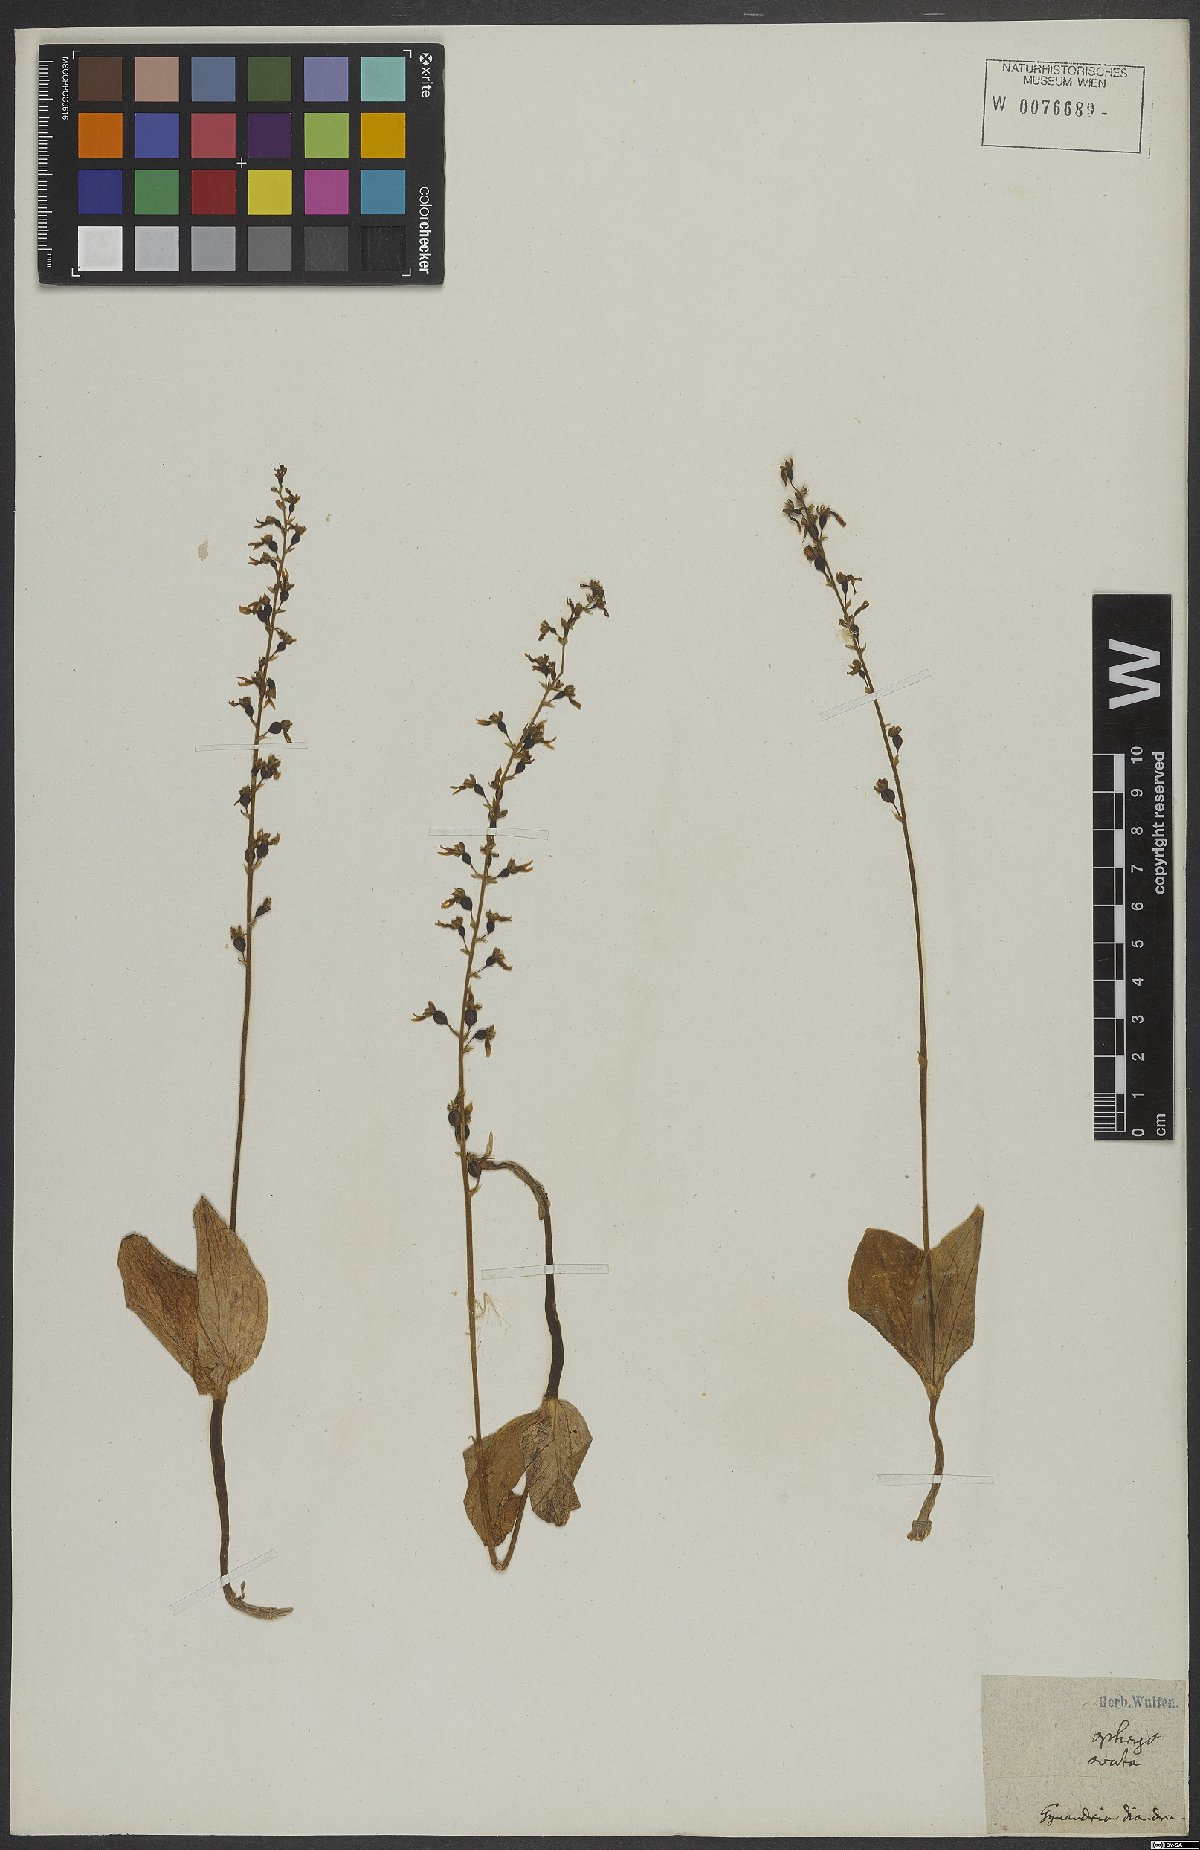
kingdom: Plantae
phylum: Tracheophyta
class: Liliopsida
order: Asparagales
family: Orchidaceae
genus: Neottia
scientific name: Neottia ovata
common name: Common twayblade
